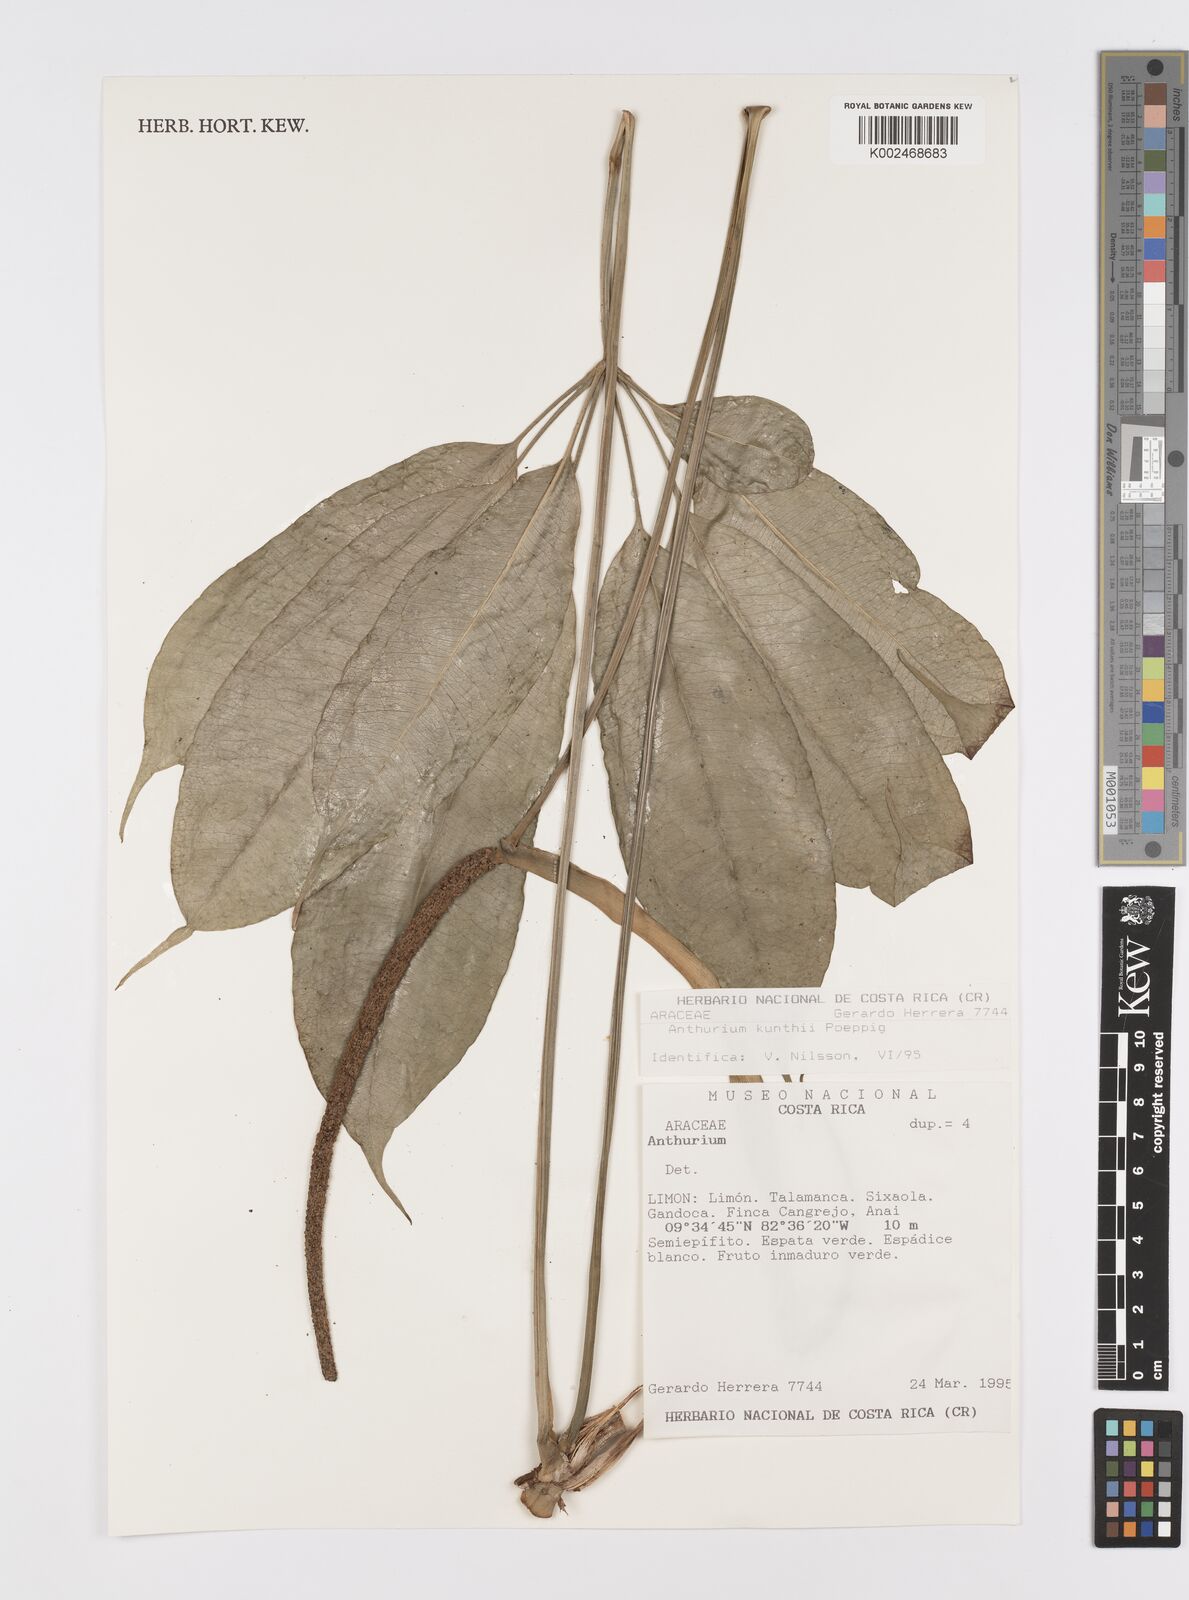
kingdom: Plantae
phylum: Tracheophyta
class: Liliopsida
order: Alismatales
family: Araceae
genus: Anthurium
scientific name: Anthurium kunthii
